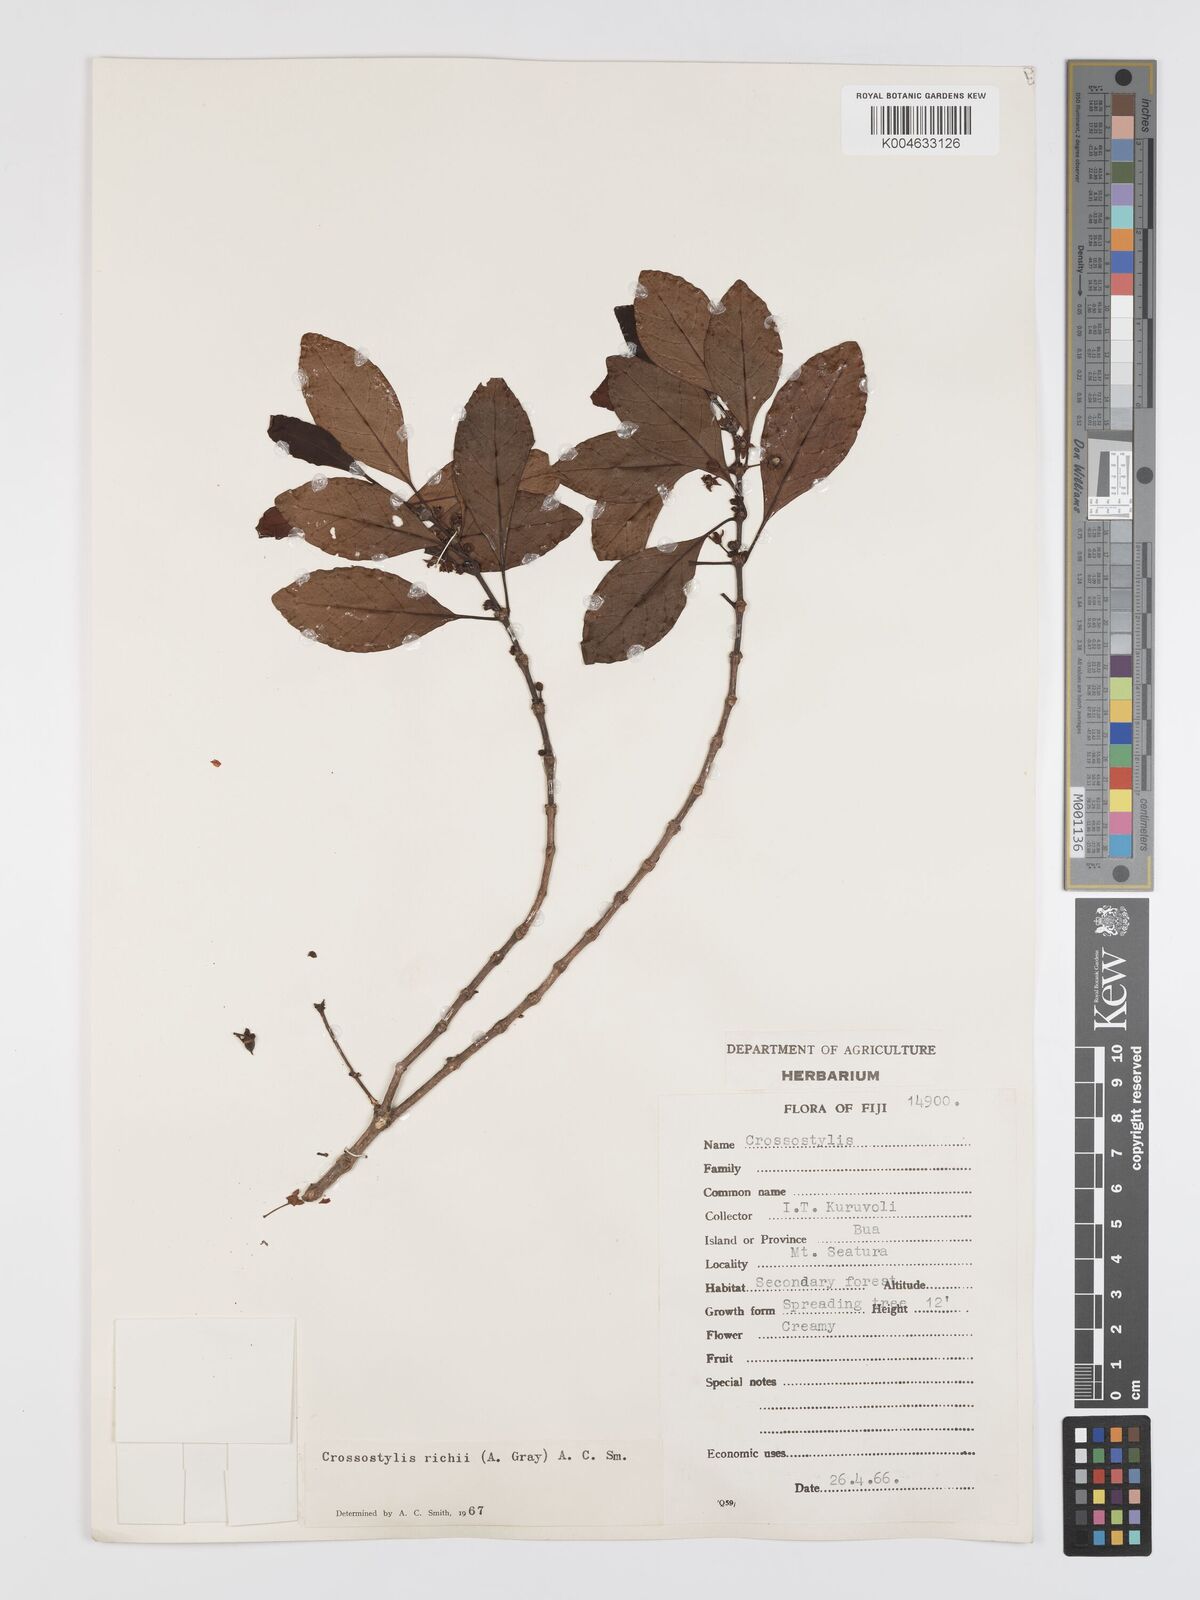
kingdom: Plantae
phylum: Tracheophyta
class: Magnoliopsida
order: Malpighiales
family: Rhizophoraceae
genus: Crossostylis
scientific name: Crossostylis richii
